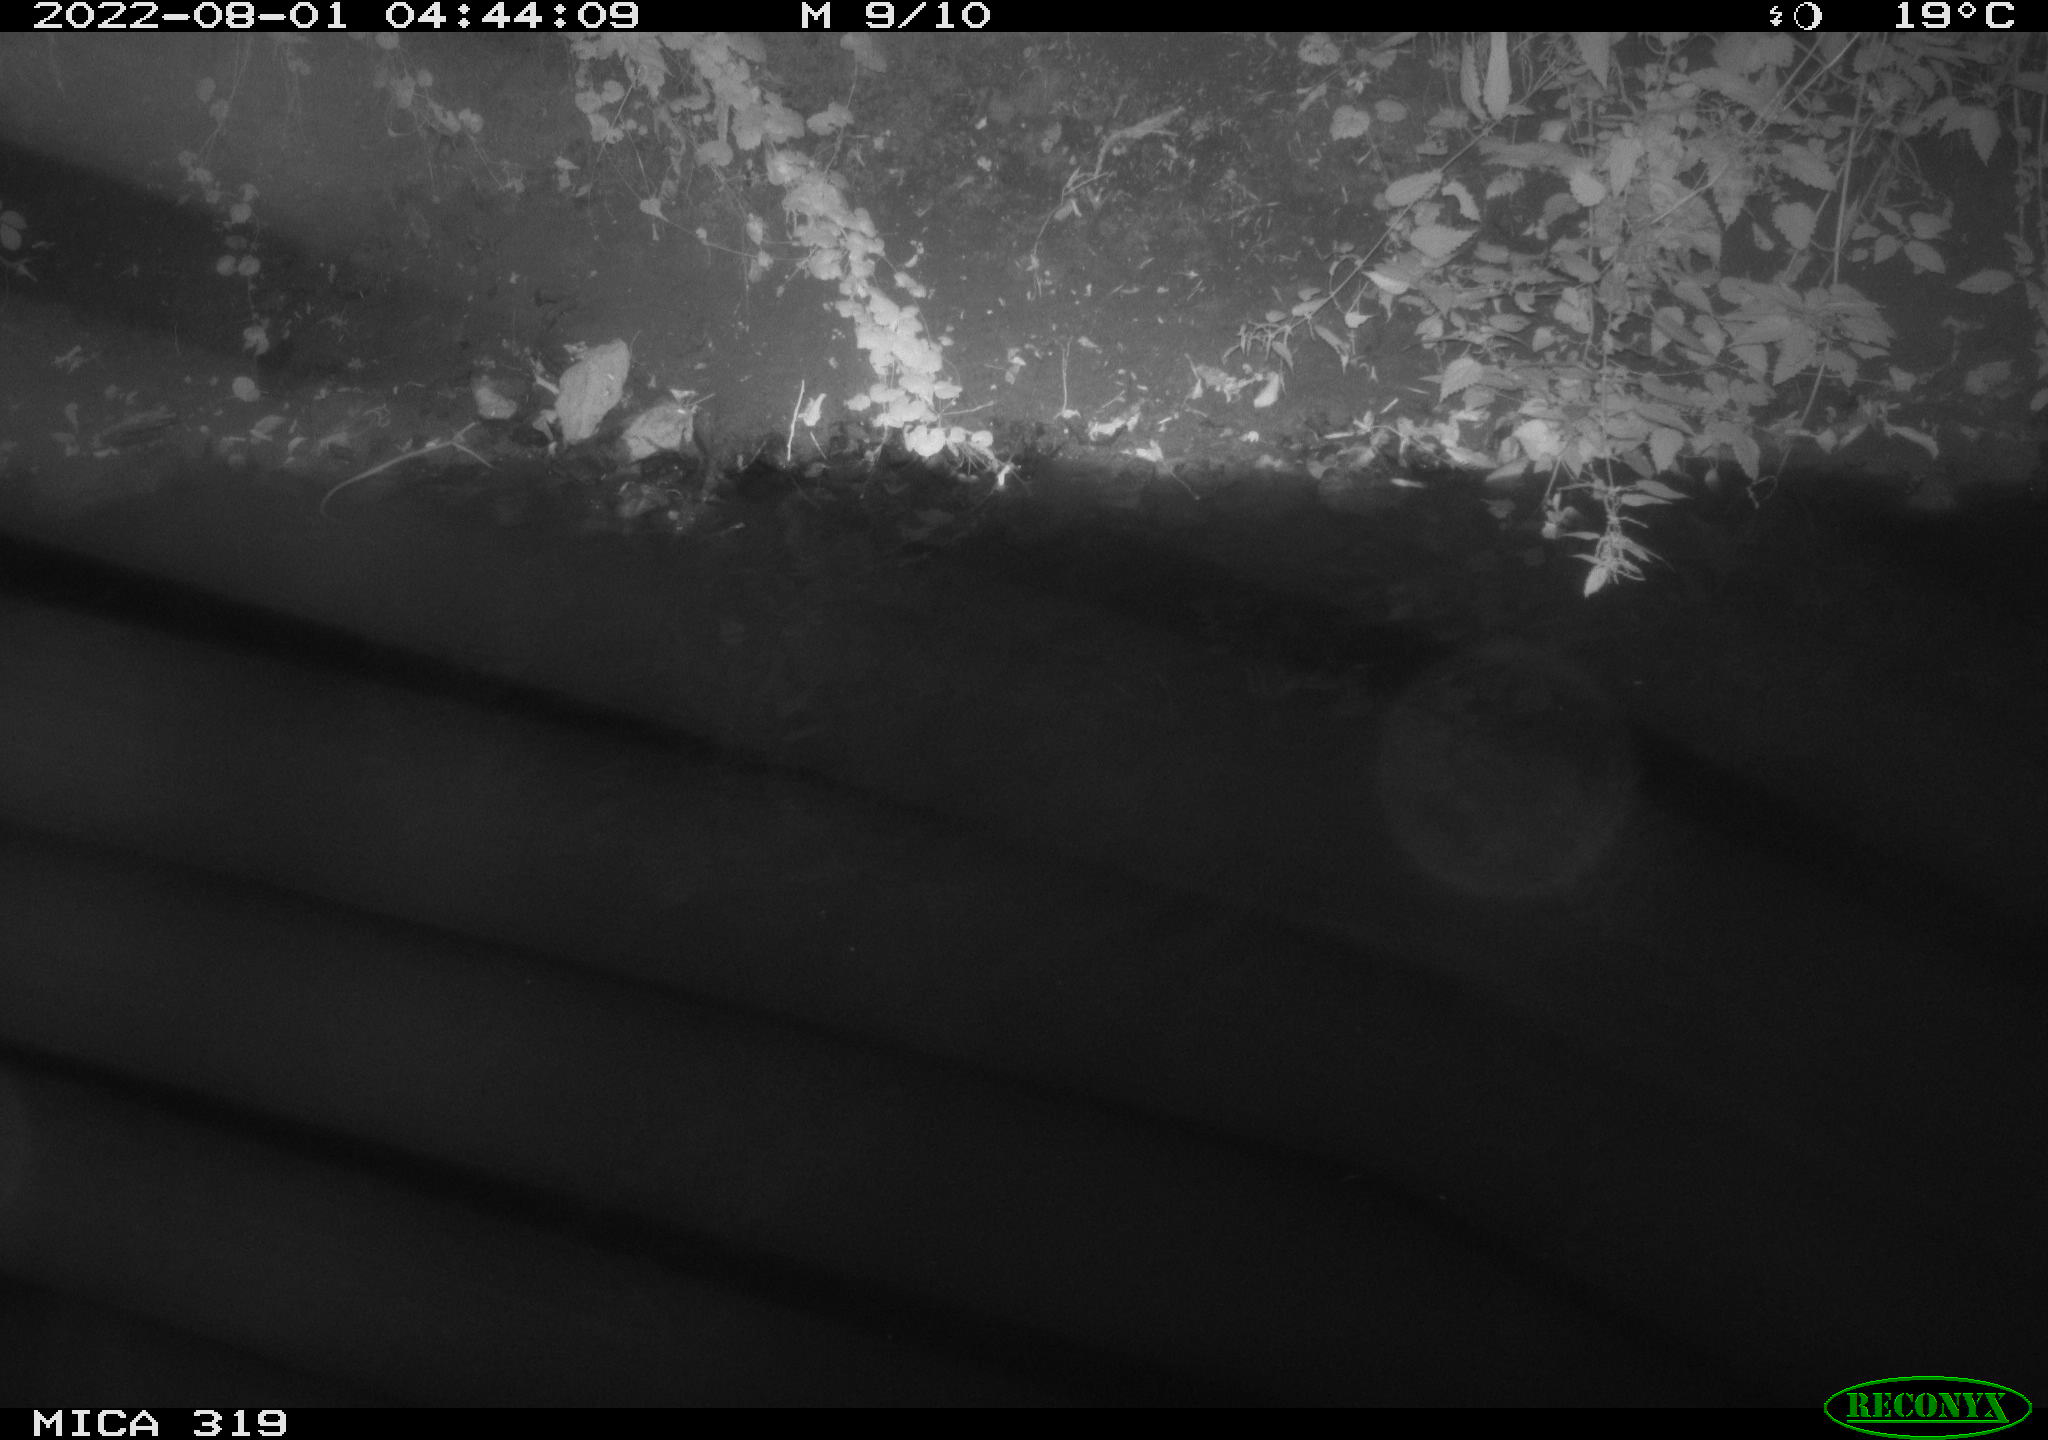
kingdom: Animalia
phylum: Chordata
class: Aves
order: Anseriformes
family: Anatidae
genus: Anas
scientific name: Anas
